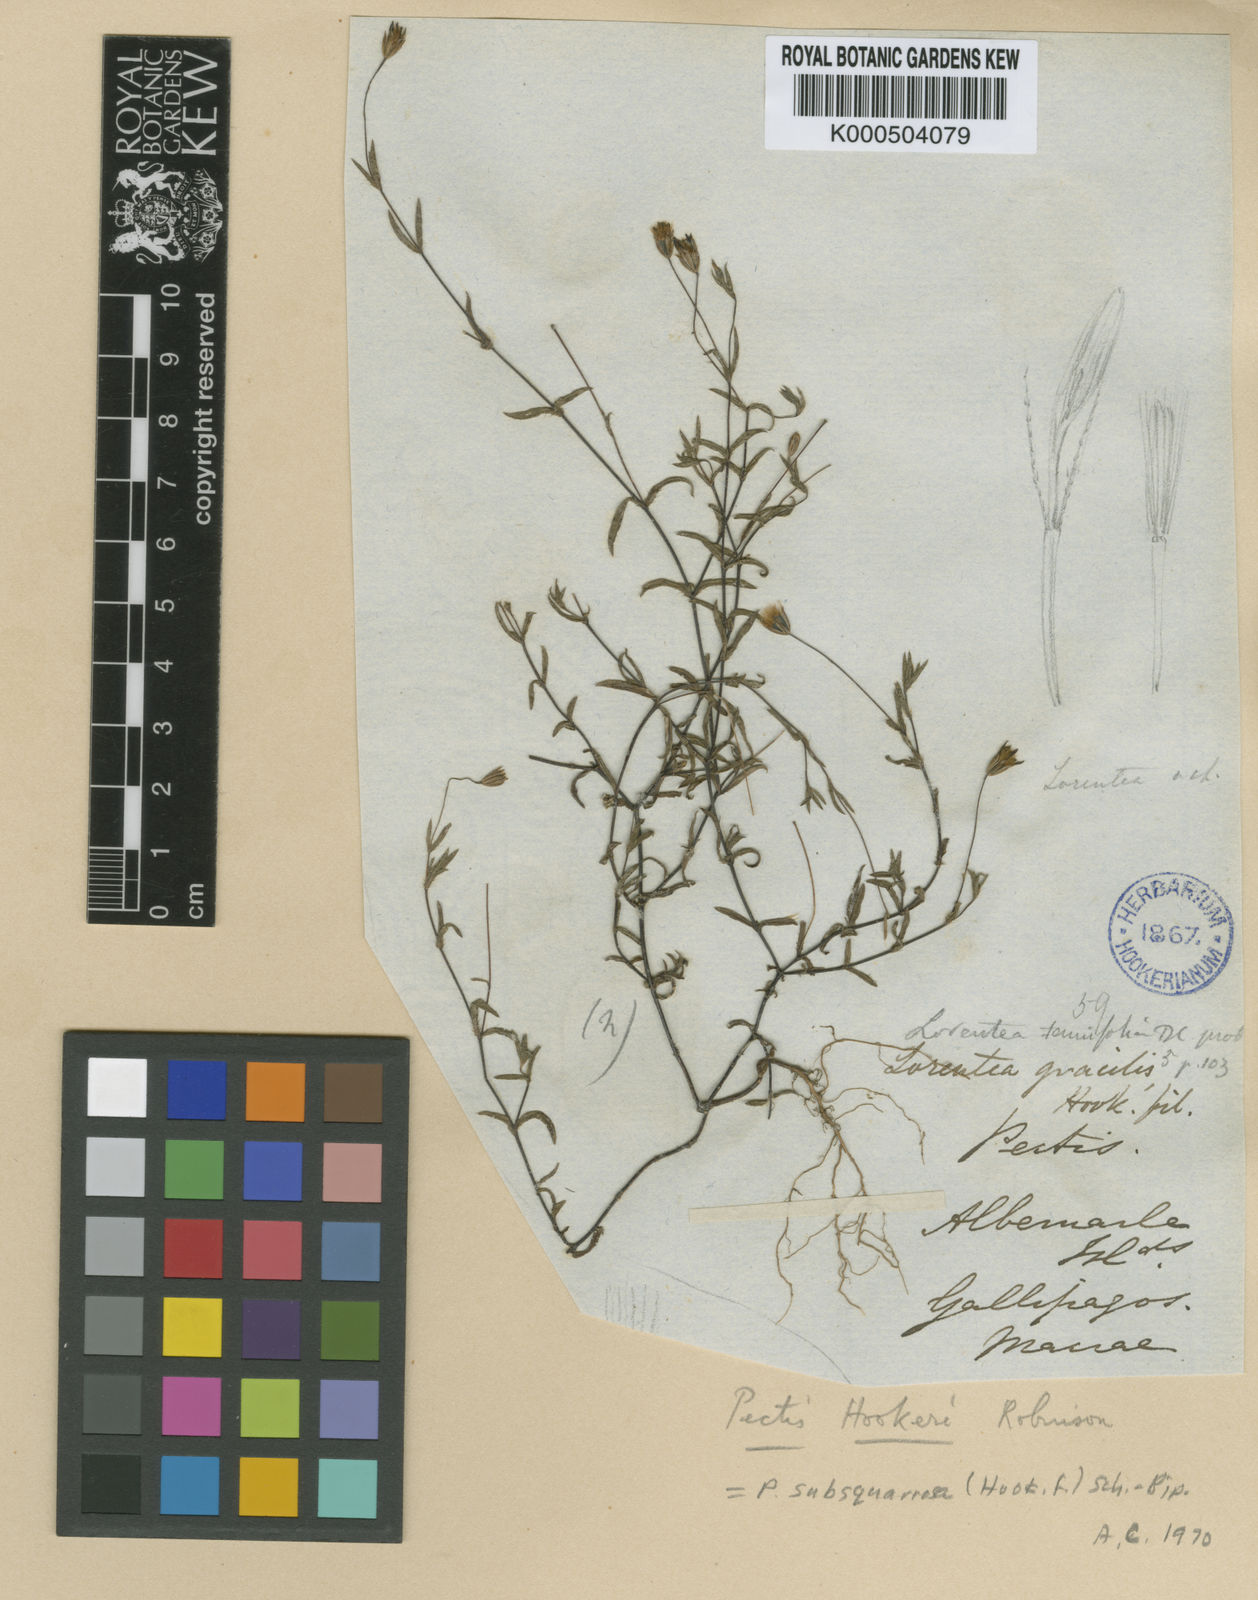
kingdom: Plantae
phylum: Tracheophyta
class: Magnoliopsida
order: Asterales
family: Asteraceae
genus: Pectis
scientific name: Pectis subsquarrosa
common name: Pectis
